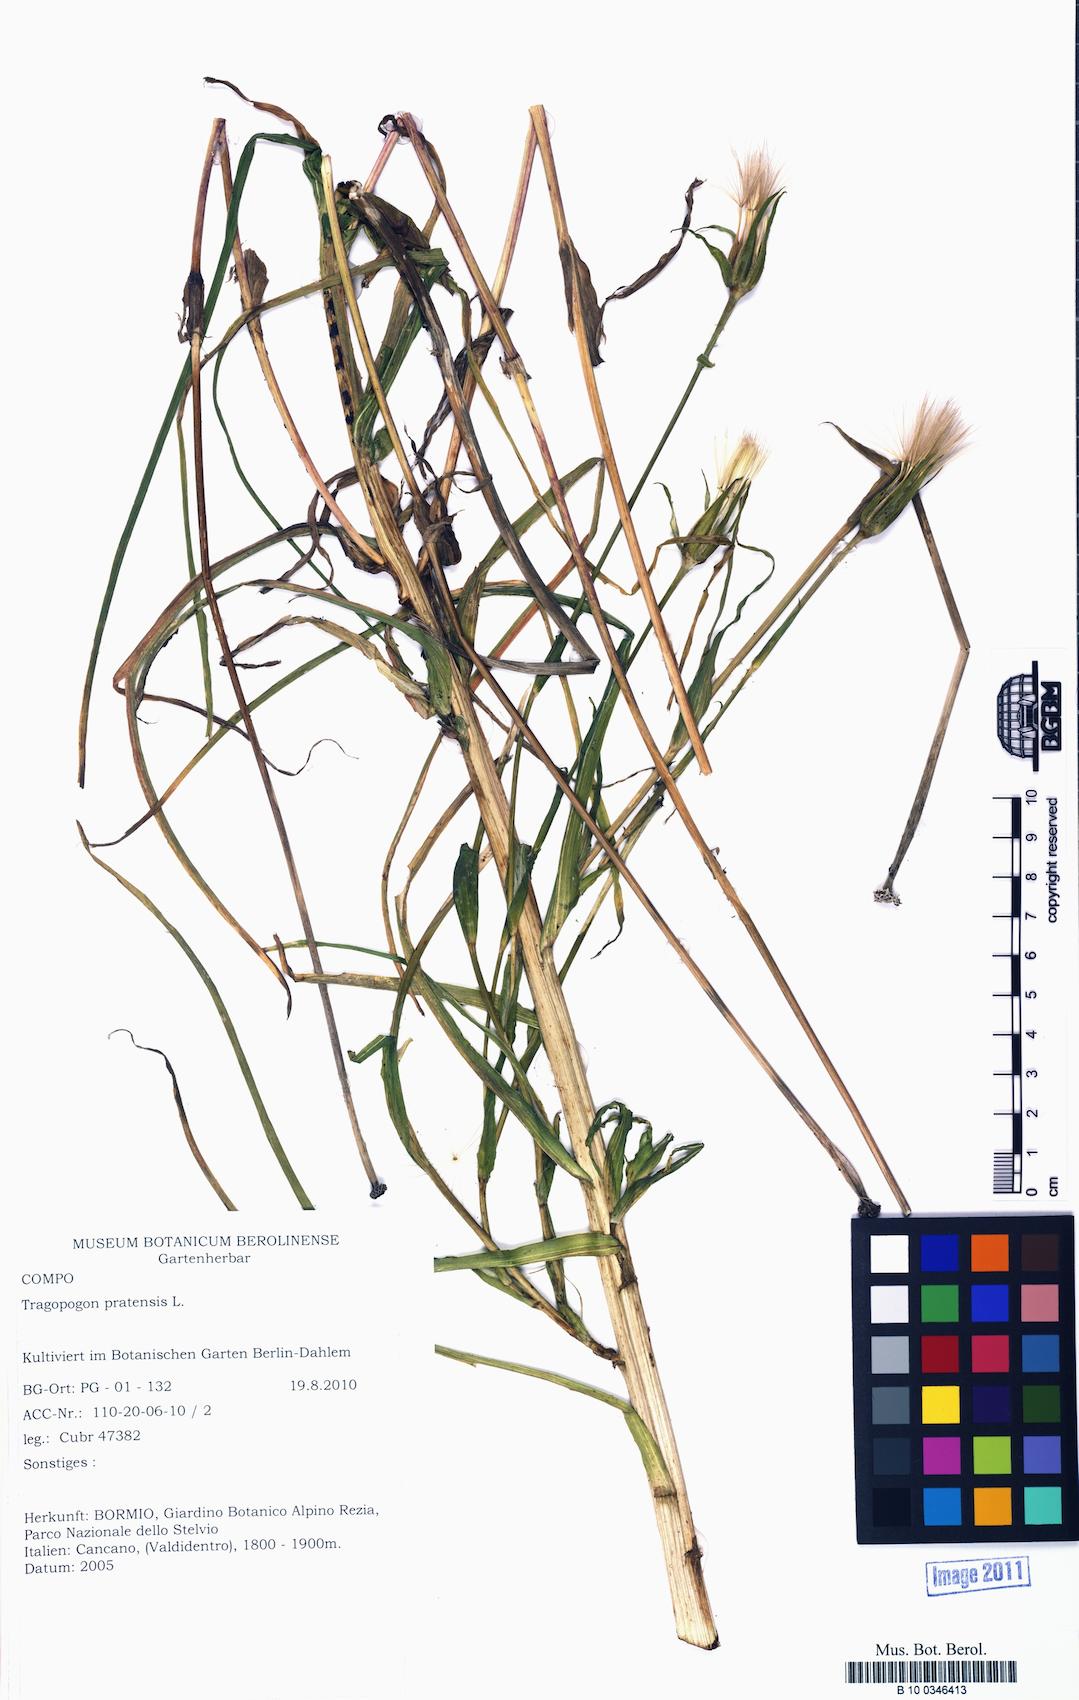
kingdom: Plantae
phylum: Tracheophyta
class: Magnoliopsida
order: Asterales
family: Asteraceae
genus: Tragopogon
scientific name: Tragopogon pratensis
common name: Goat's-beard
